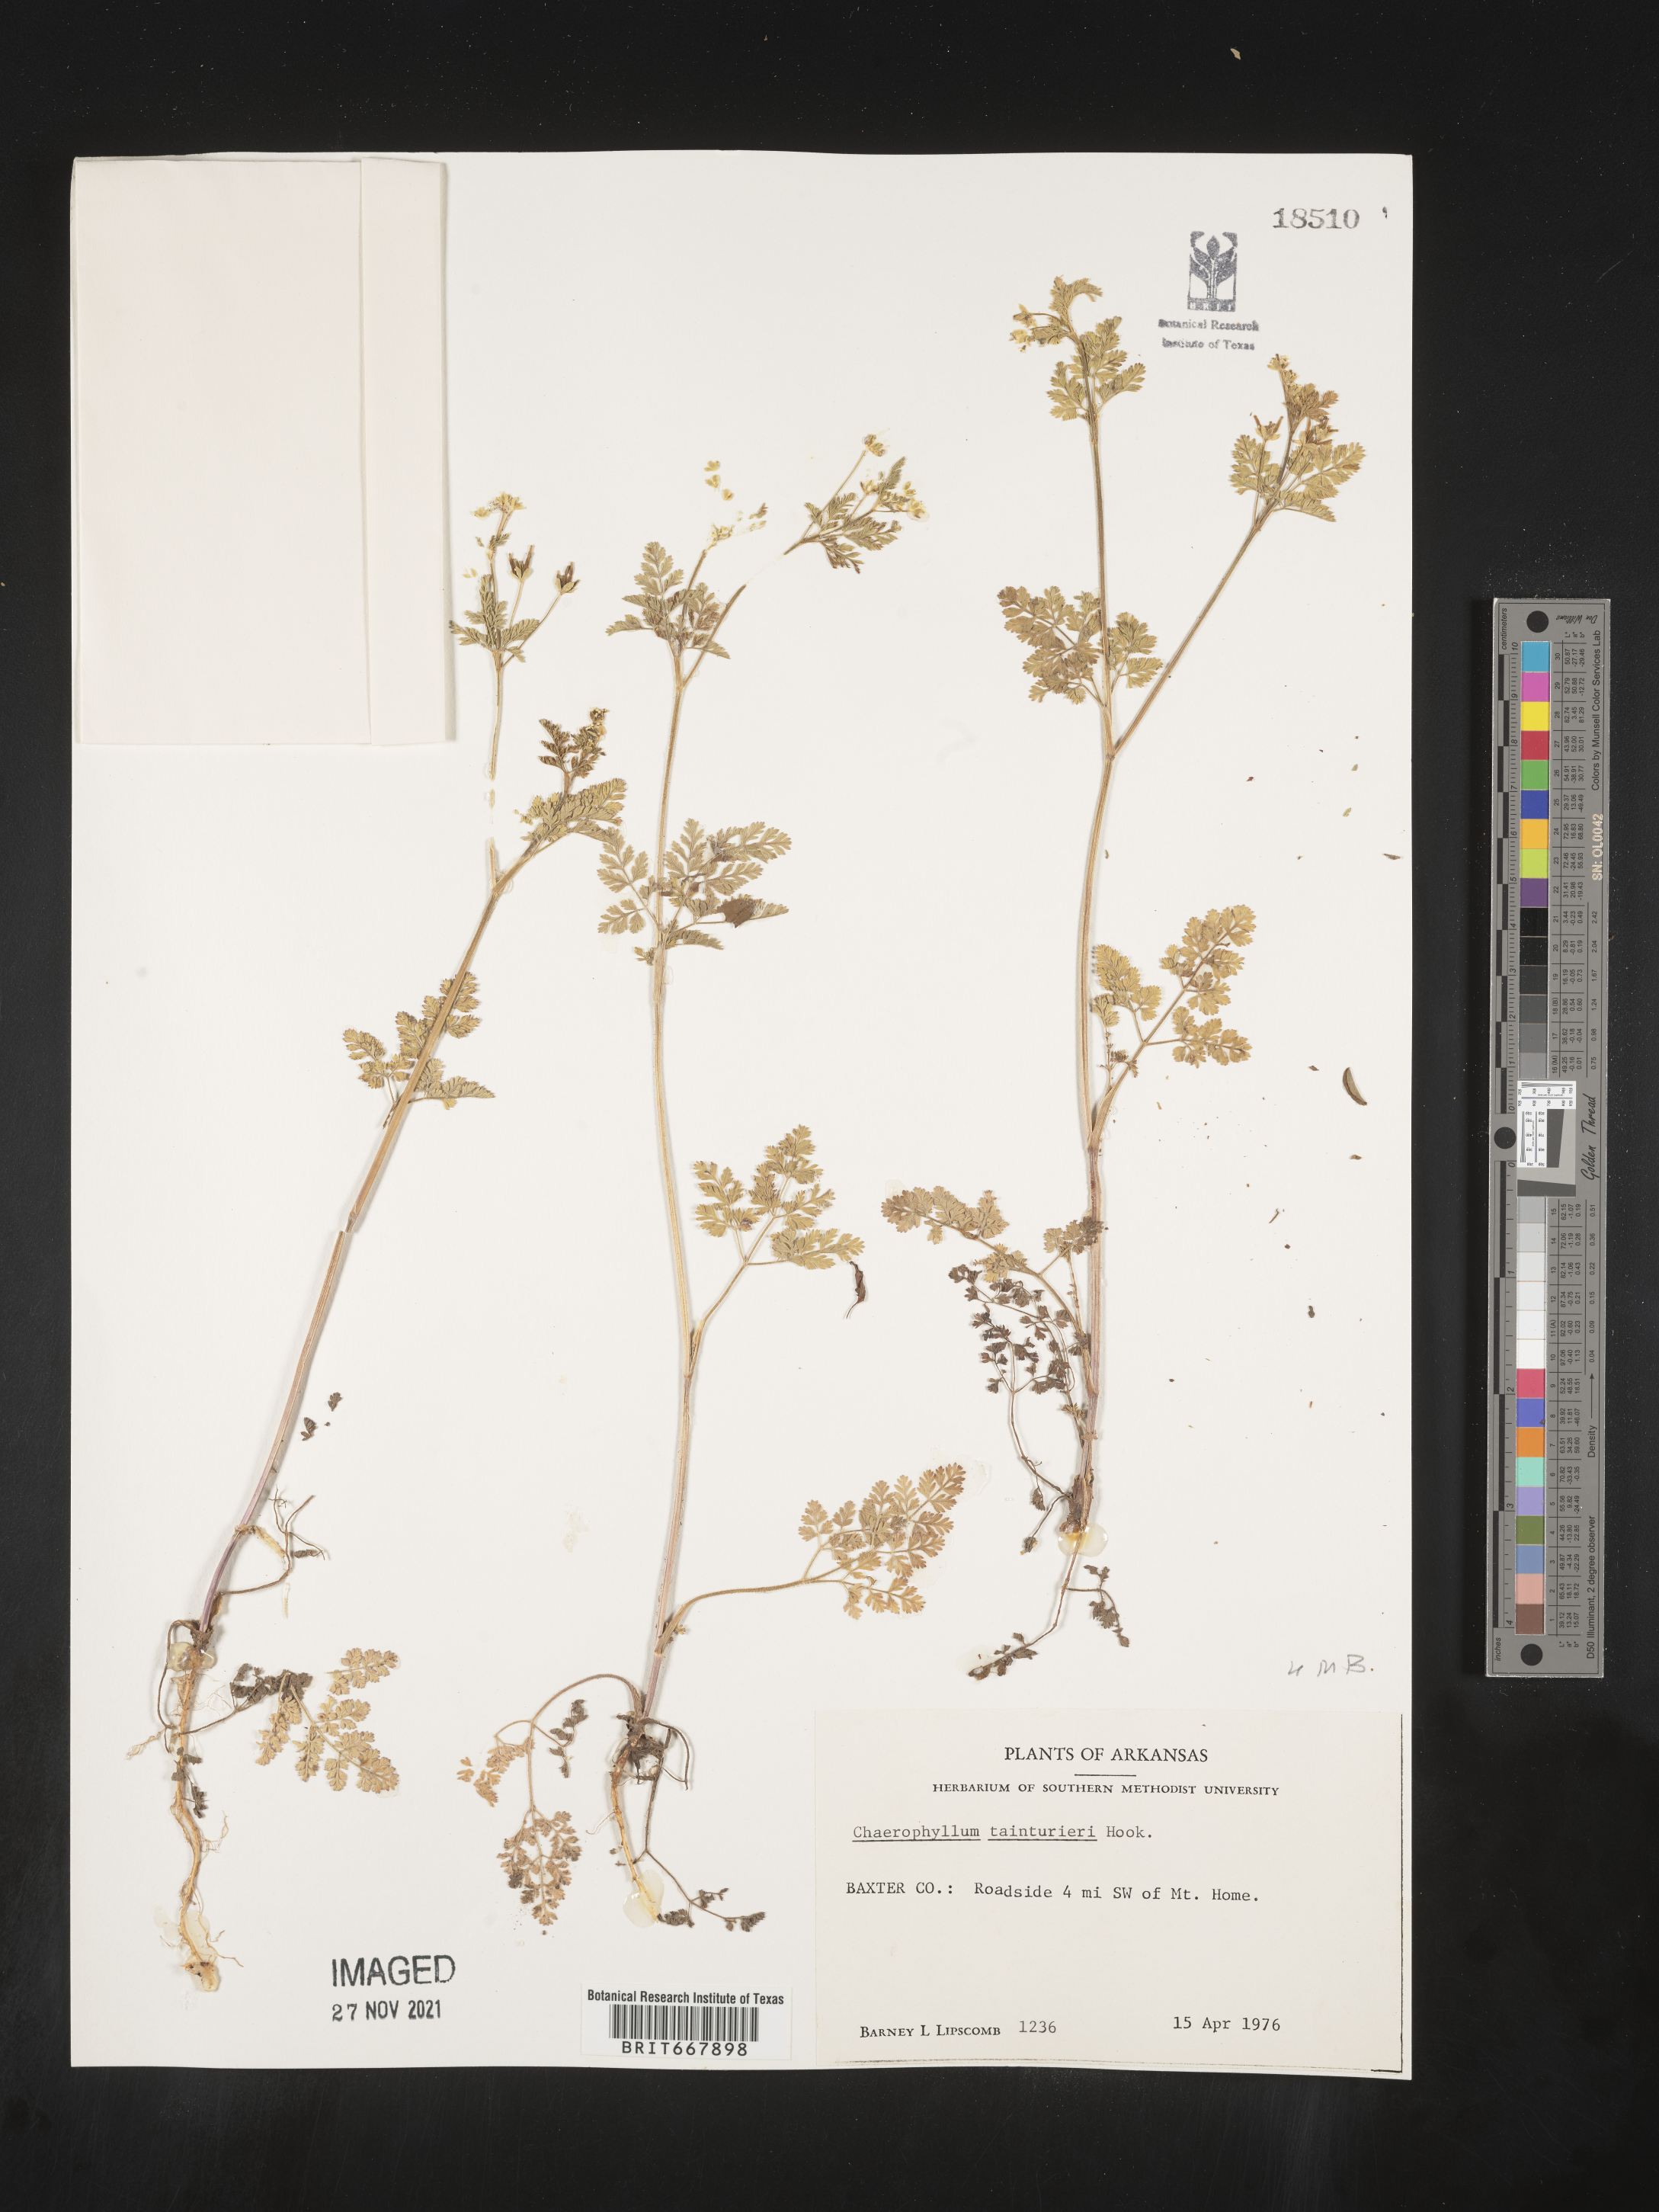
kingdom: Plantae
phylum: Tracheophyta
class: Magnoliopsida
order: Apiales
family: Apiaceae
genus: Chaerophyllum
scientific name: Chaerophyllum tainturieri
